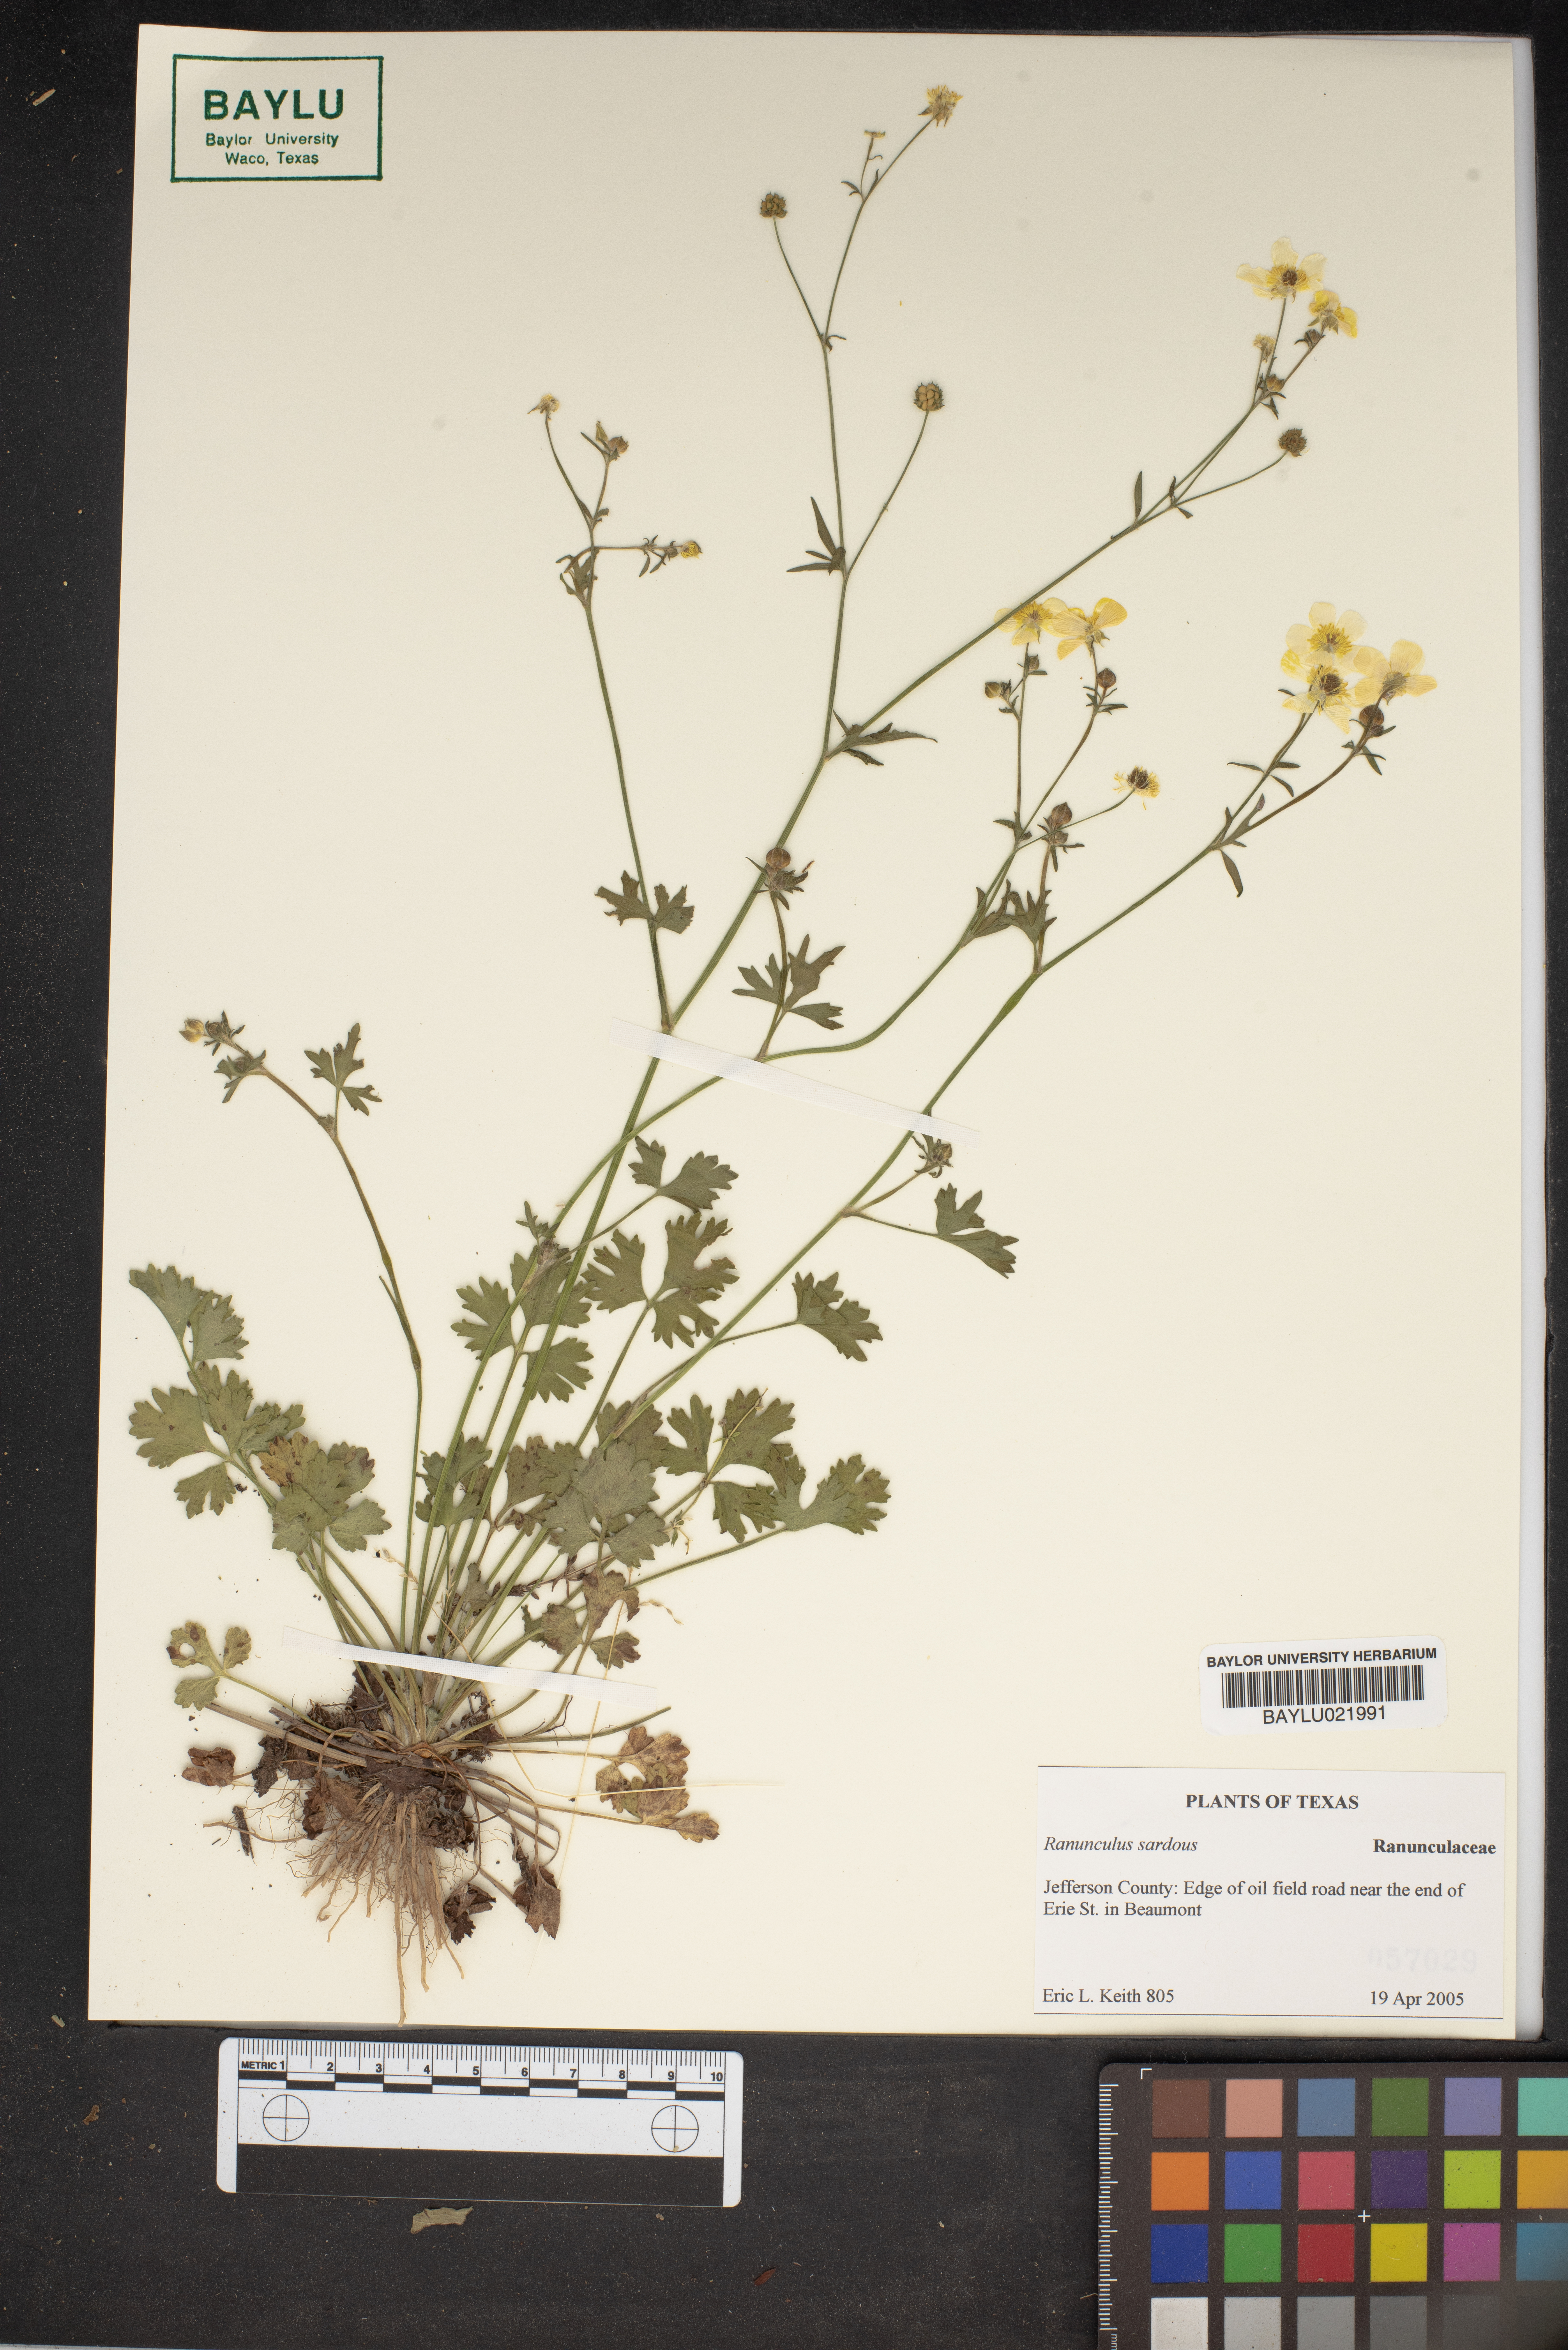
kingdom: Plantae
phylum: Tracheophyta
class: Magnoliopsida
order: Ranunculales
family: Ranunculaceae
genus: Ranunculus
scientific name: Ranunculus sardous
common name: Hairy buttercup
